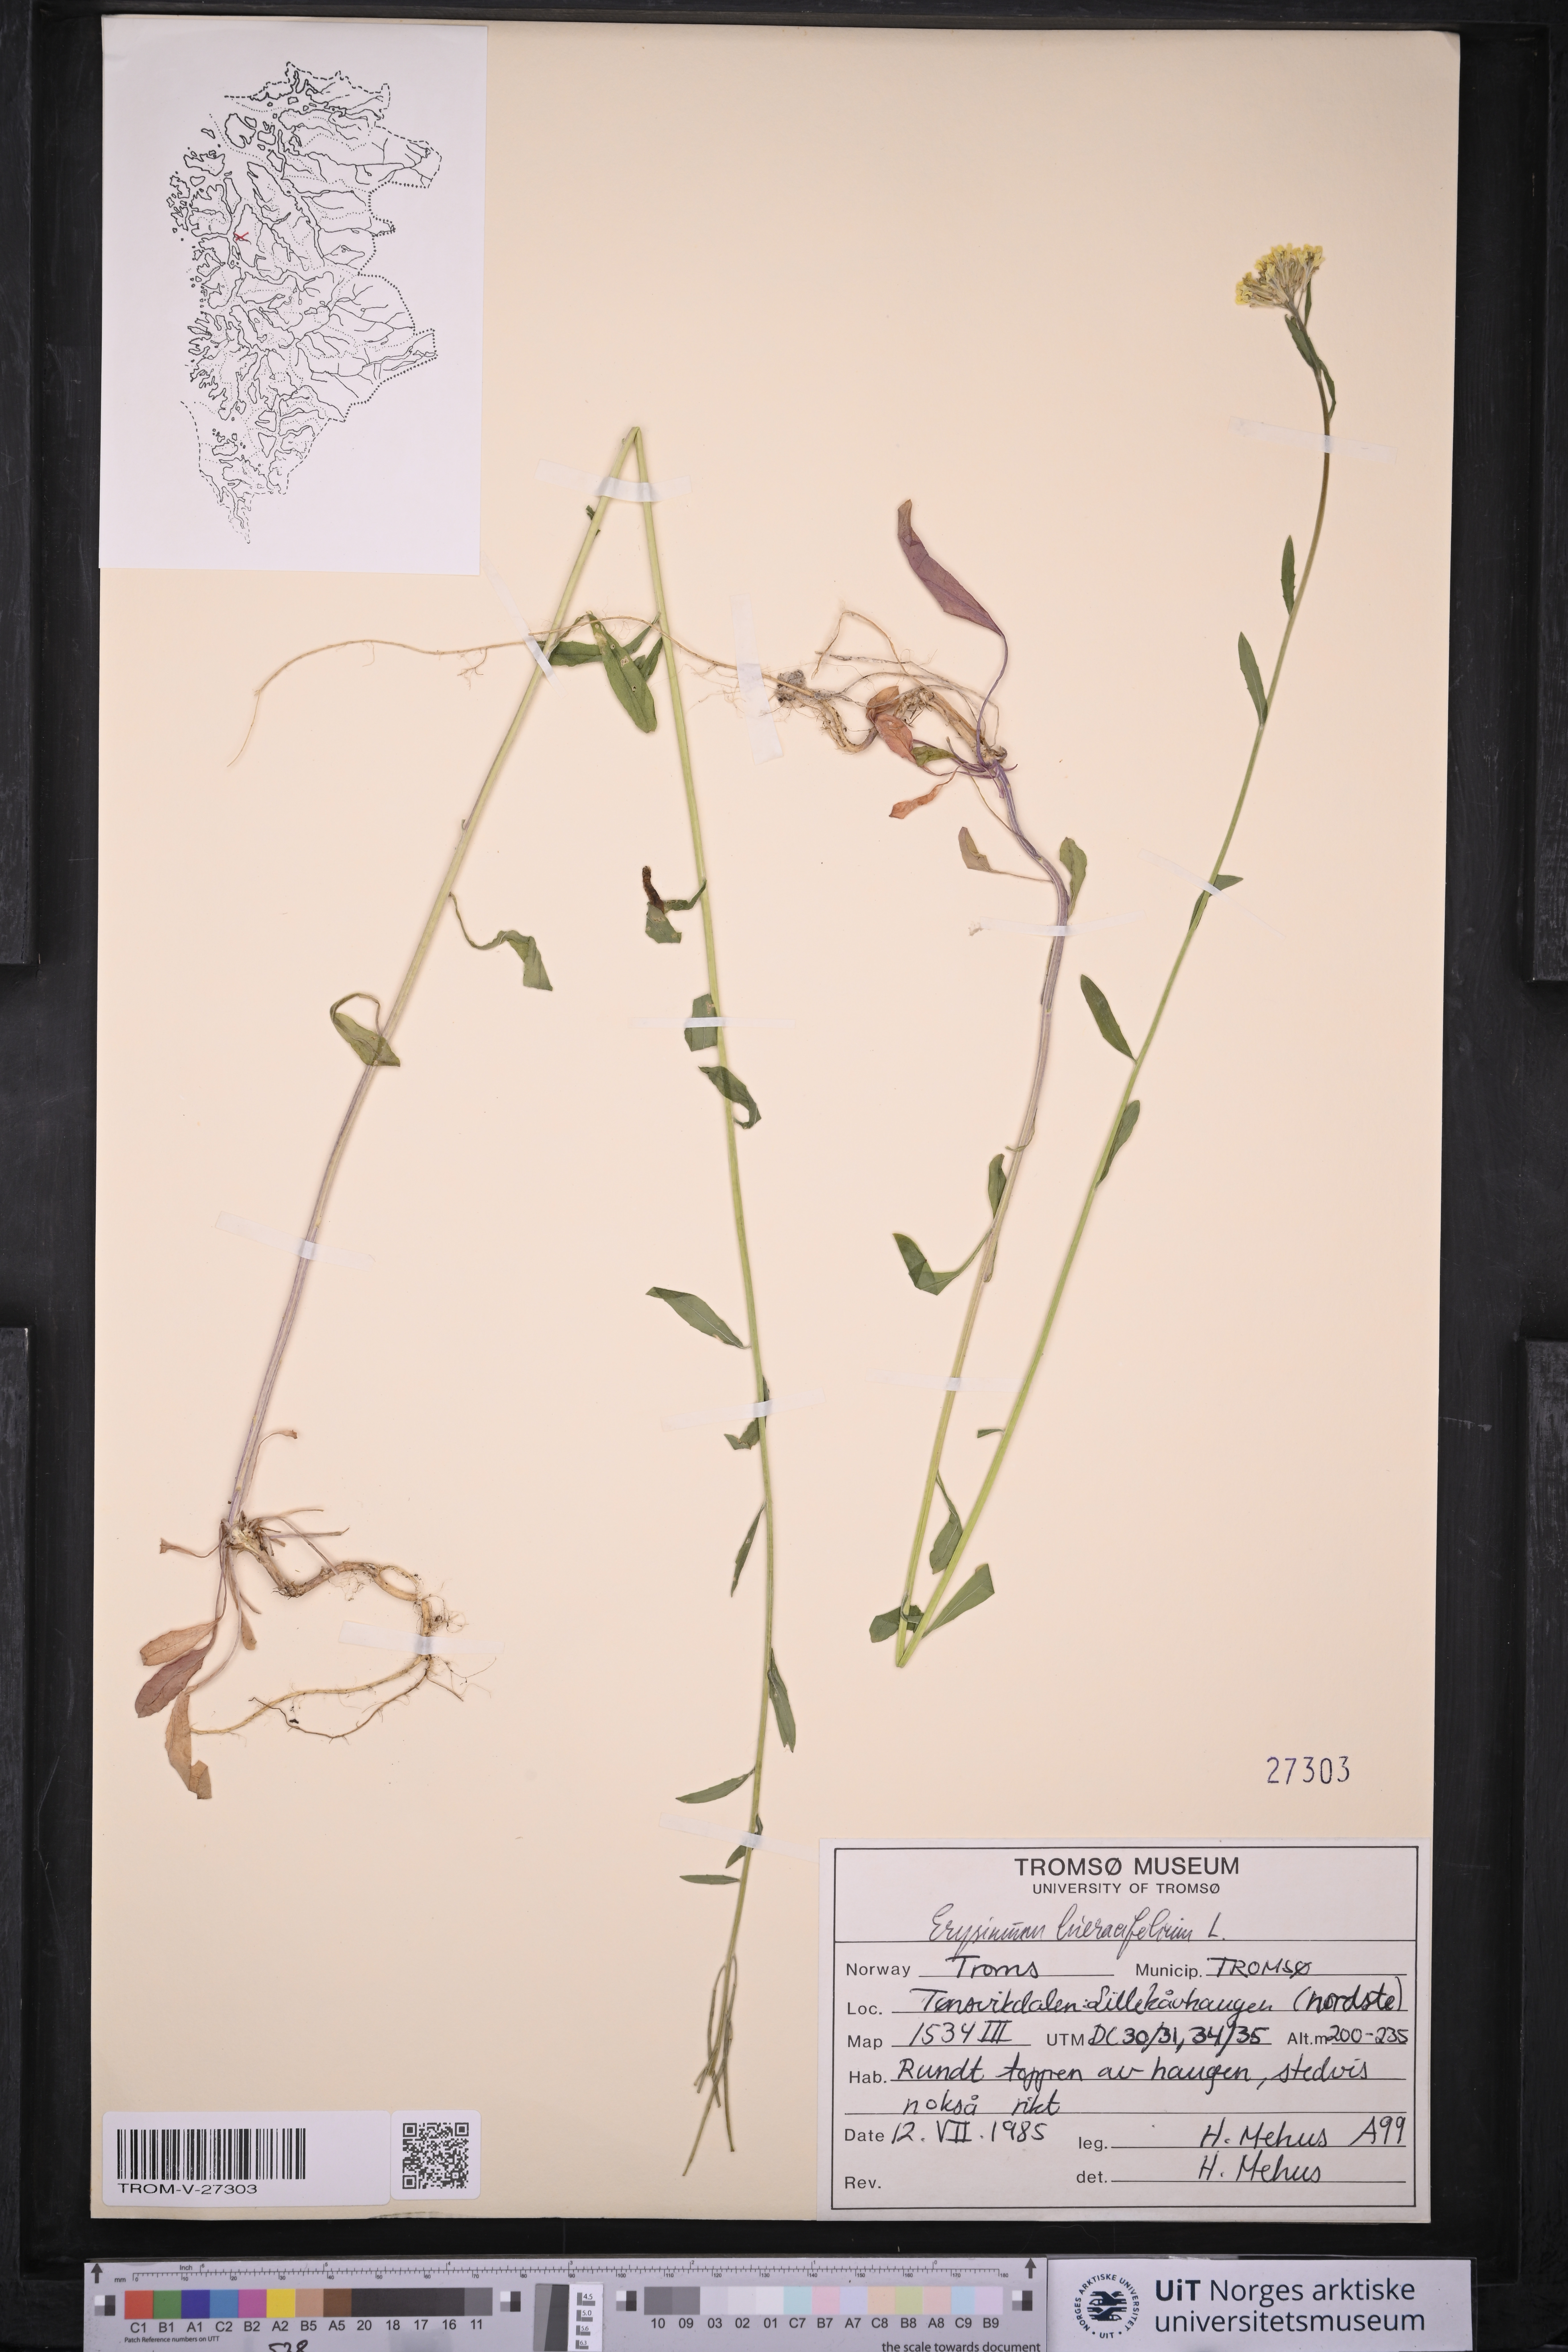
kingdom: Plantae
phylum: Tracheophyta
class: Magnoliopsida
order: Brassicales
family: Brassicaceae
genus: Erysimum
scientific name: Erysimum hieraciifolium
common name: European wallflower
